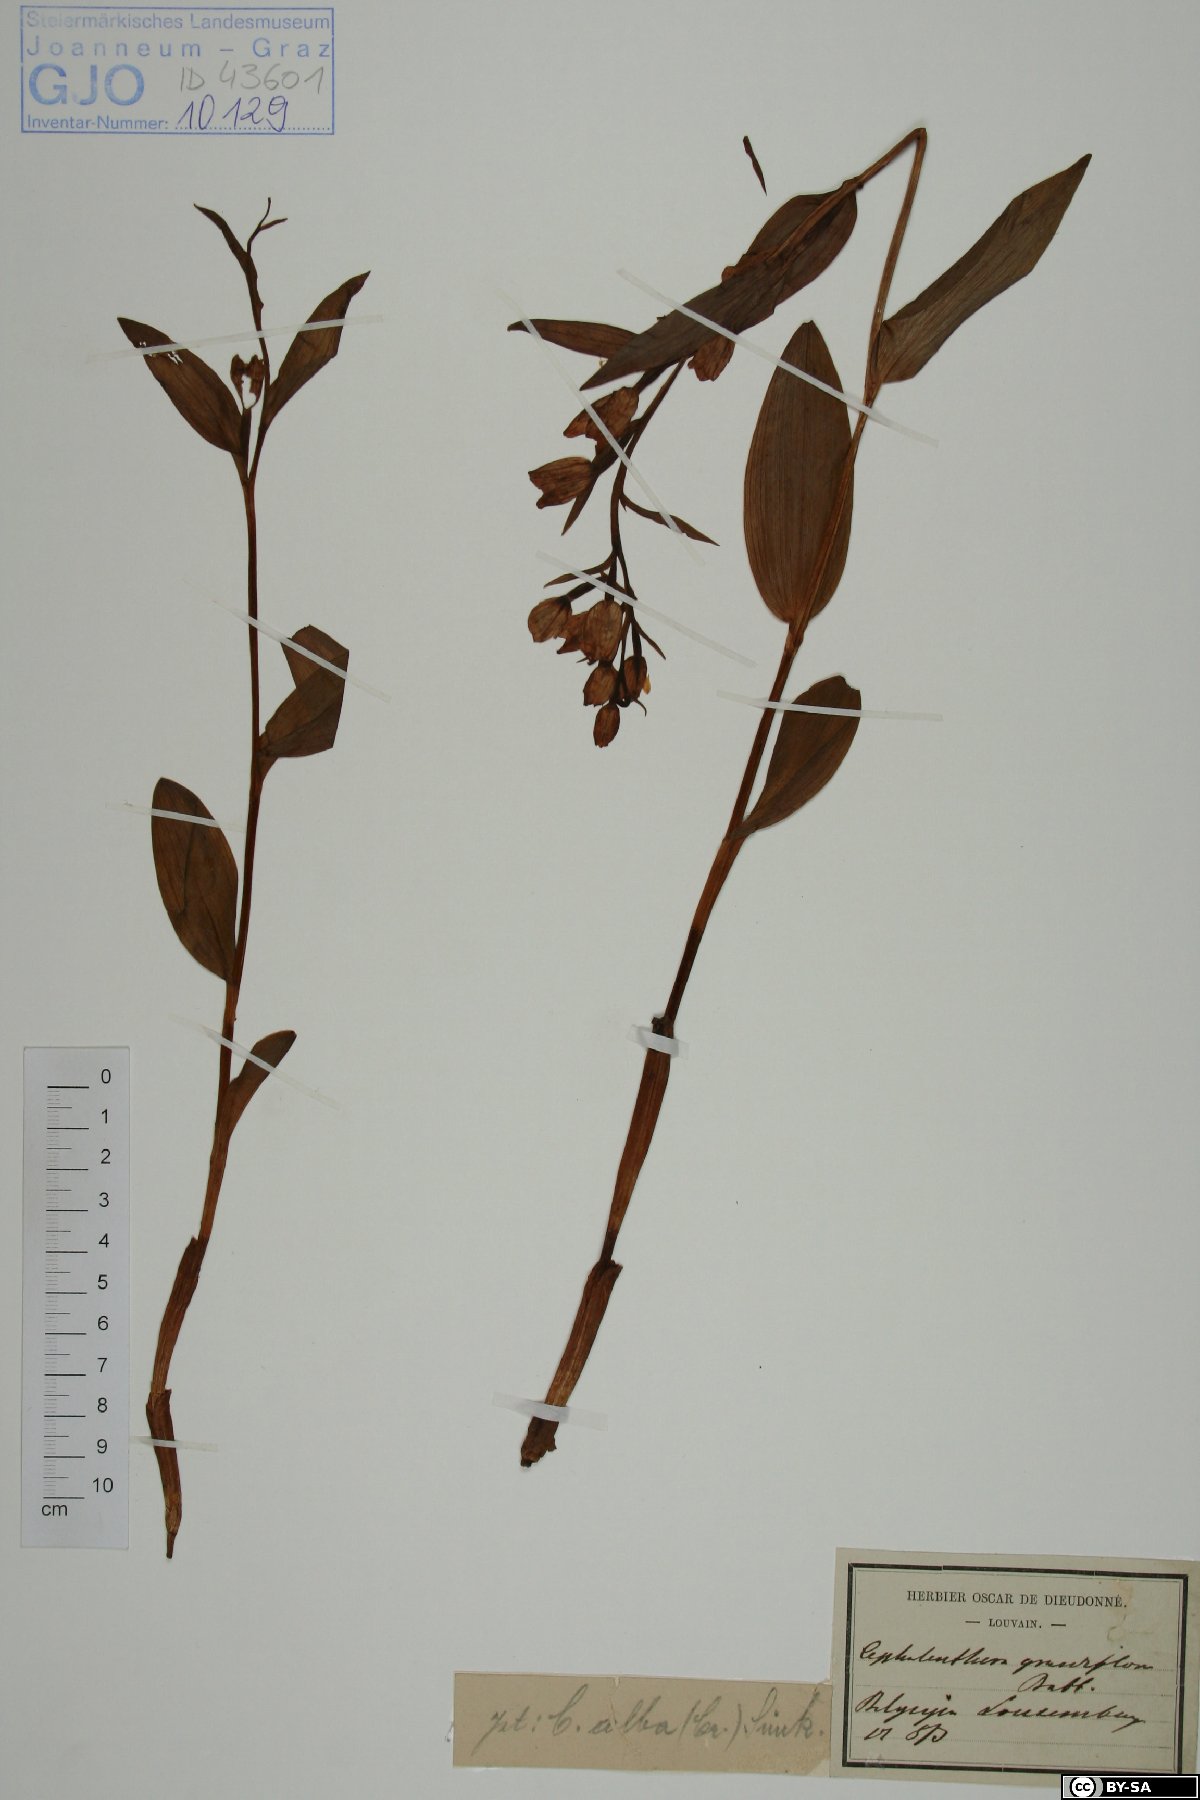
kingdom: Plantae
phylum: Tracheophyta
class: Liliopsida
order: Asparagales
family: Orchidaceae
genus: Cephalanthera
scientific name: Cephalanthera longifolia
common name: Narrow-leaved helleborine
